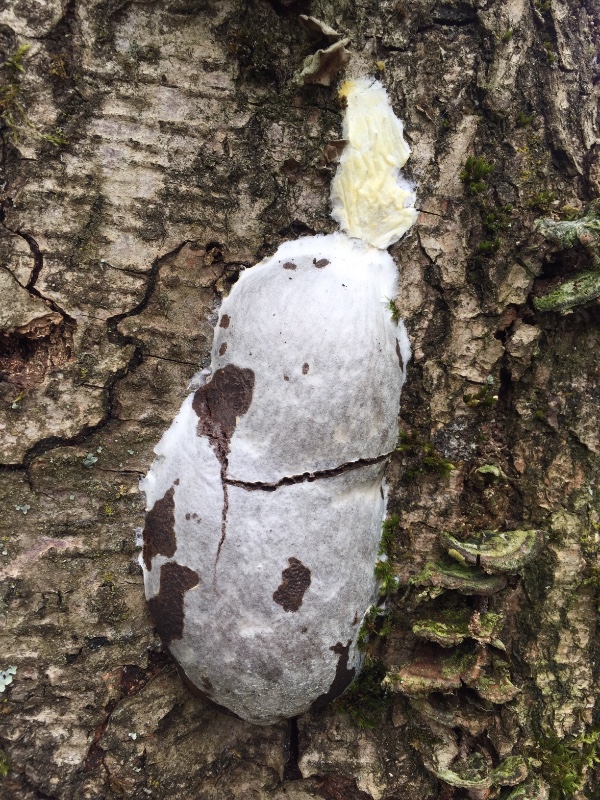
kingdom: Protozoa
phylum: Mycetozoa
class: Myxomycetes
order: Cribrariales
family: Tubiferaceae
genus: Reticularia
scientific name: Reticularia lycoperdon
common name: skinnende støvpude
